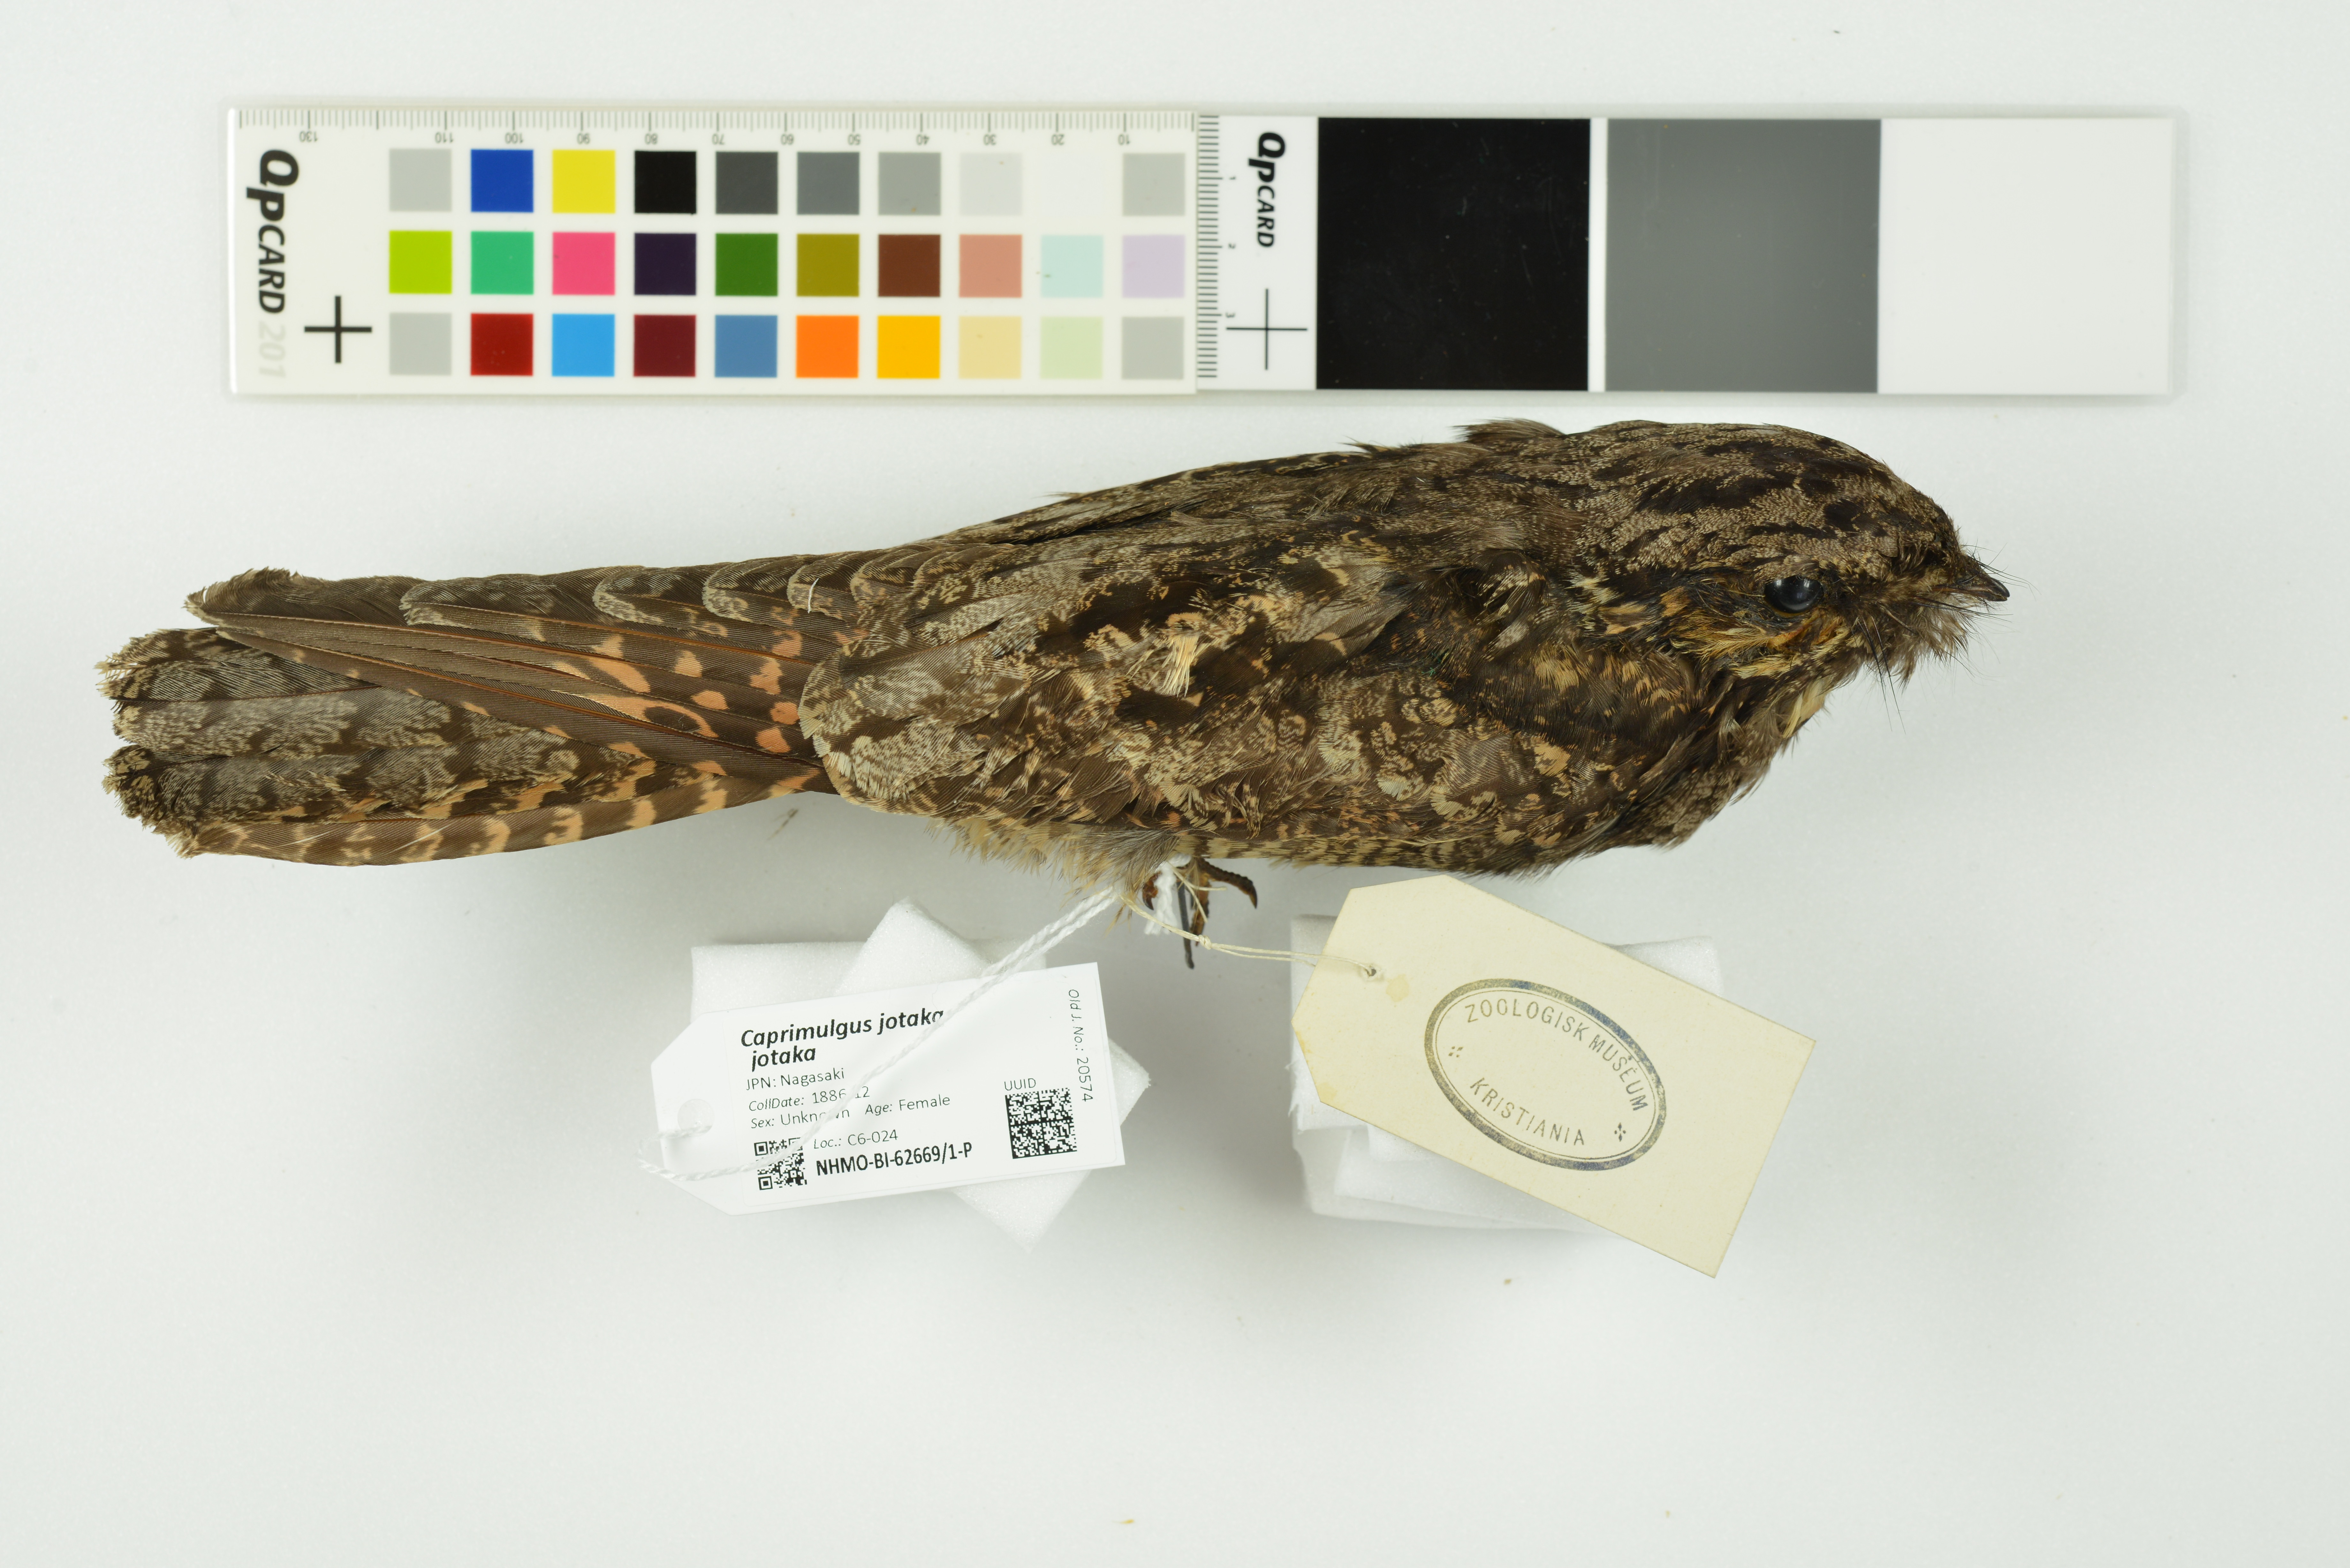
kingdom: Animalia
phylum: Chordata
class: Aves
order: Caprimulgiformes
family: Caprimulgidae
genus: Caprimulgus
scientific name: Caprimulgus jotaka
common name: Grey nightjar
